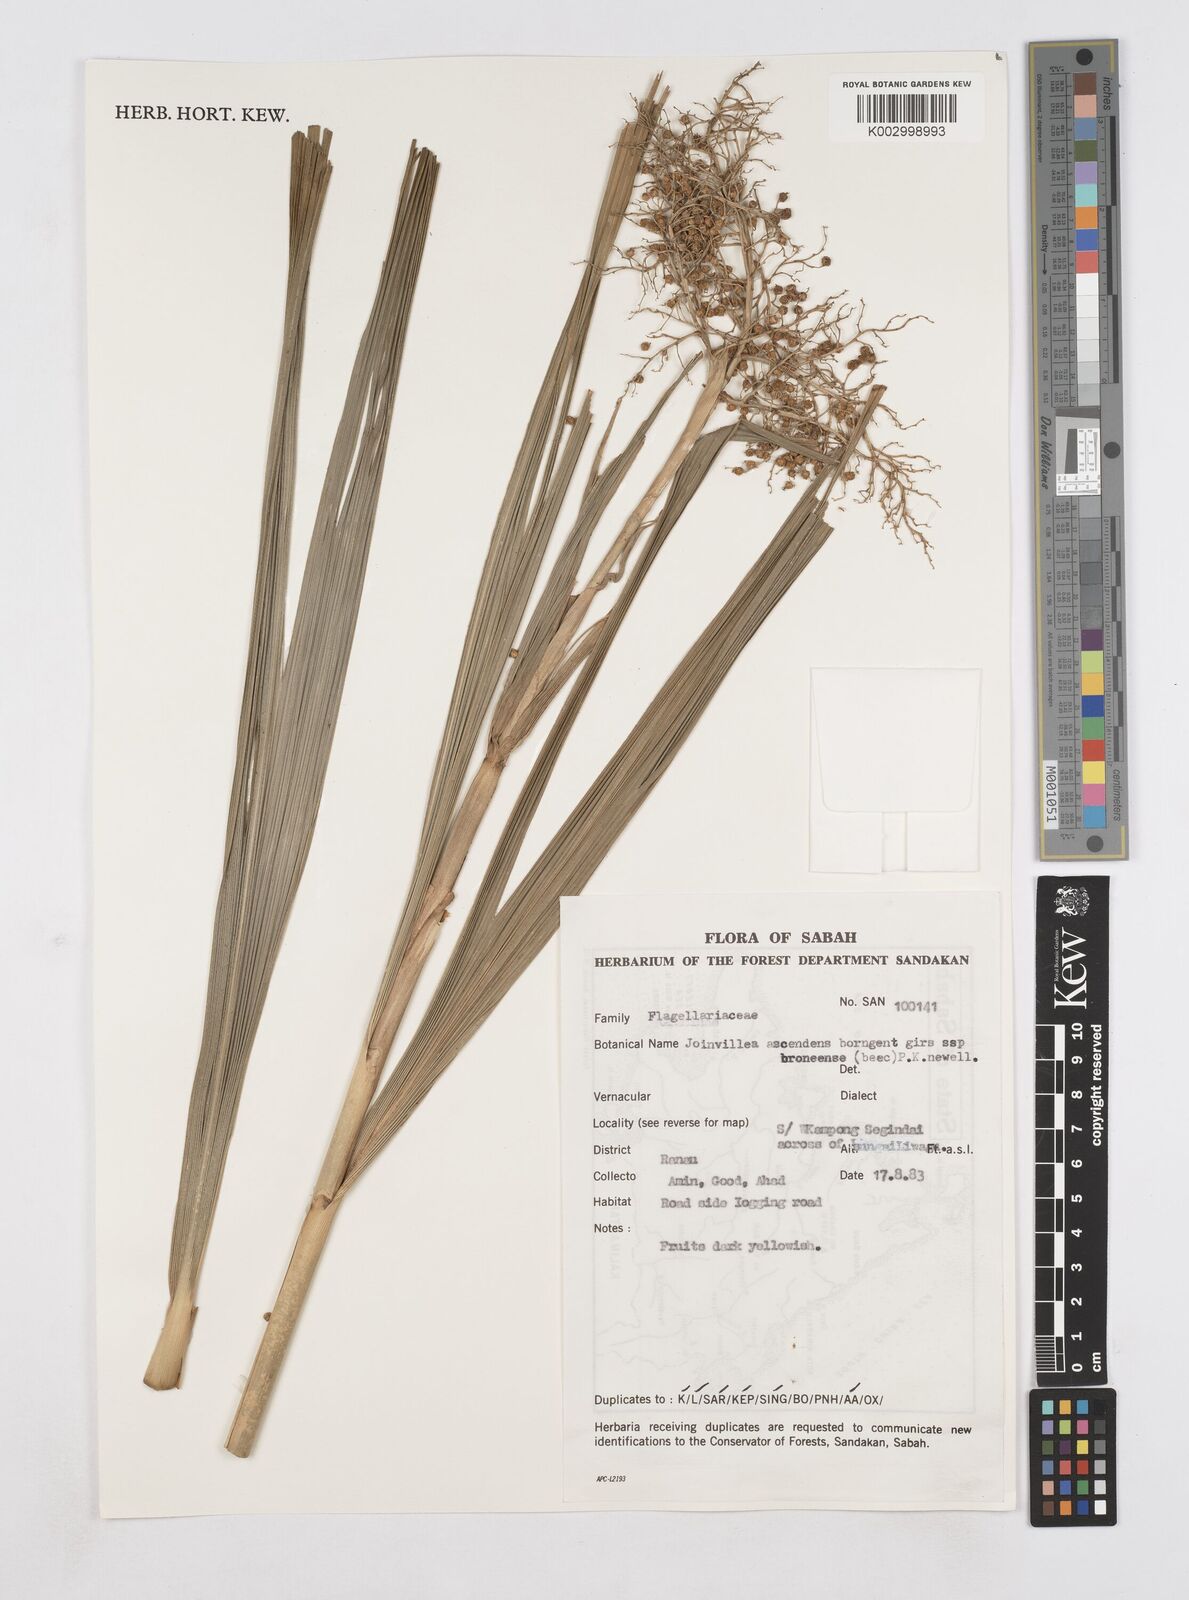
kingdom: Plantae
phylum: Tracheophyta
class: Liliopsida
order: Poales
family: Joinvilleaceae
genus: Joinvillea
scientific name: Joinvillea borneensis
